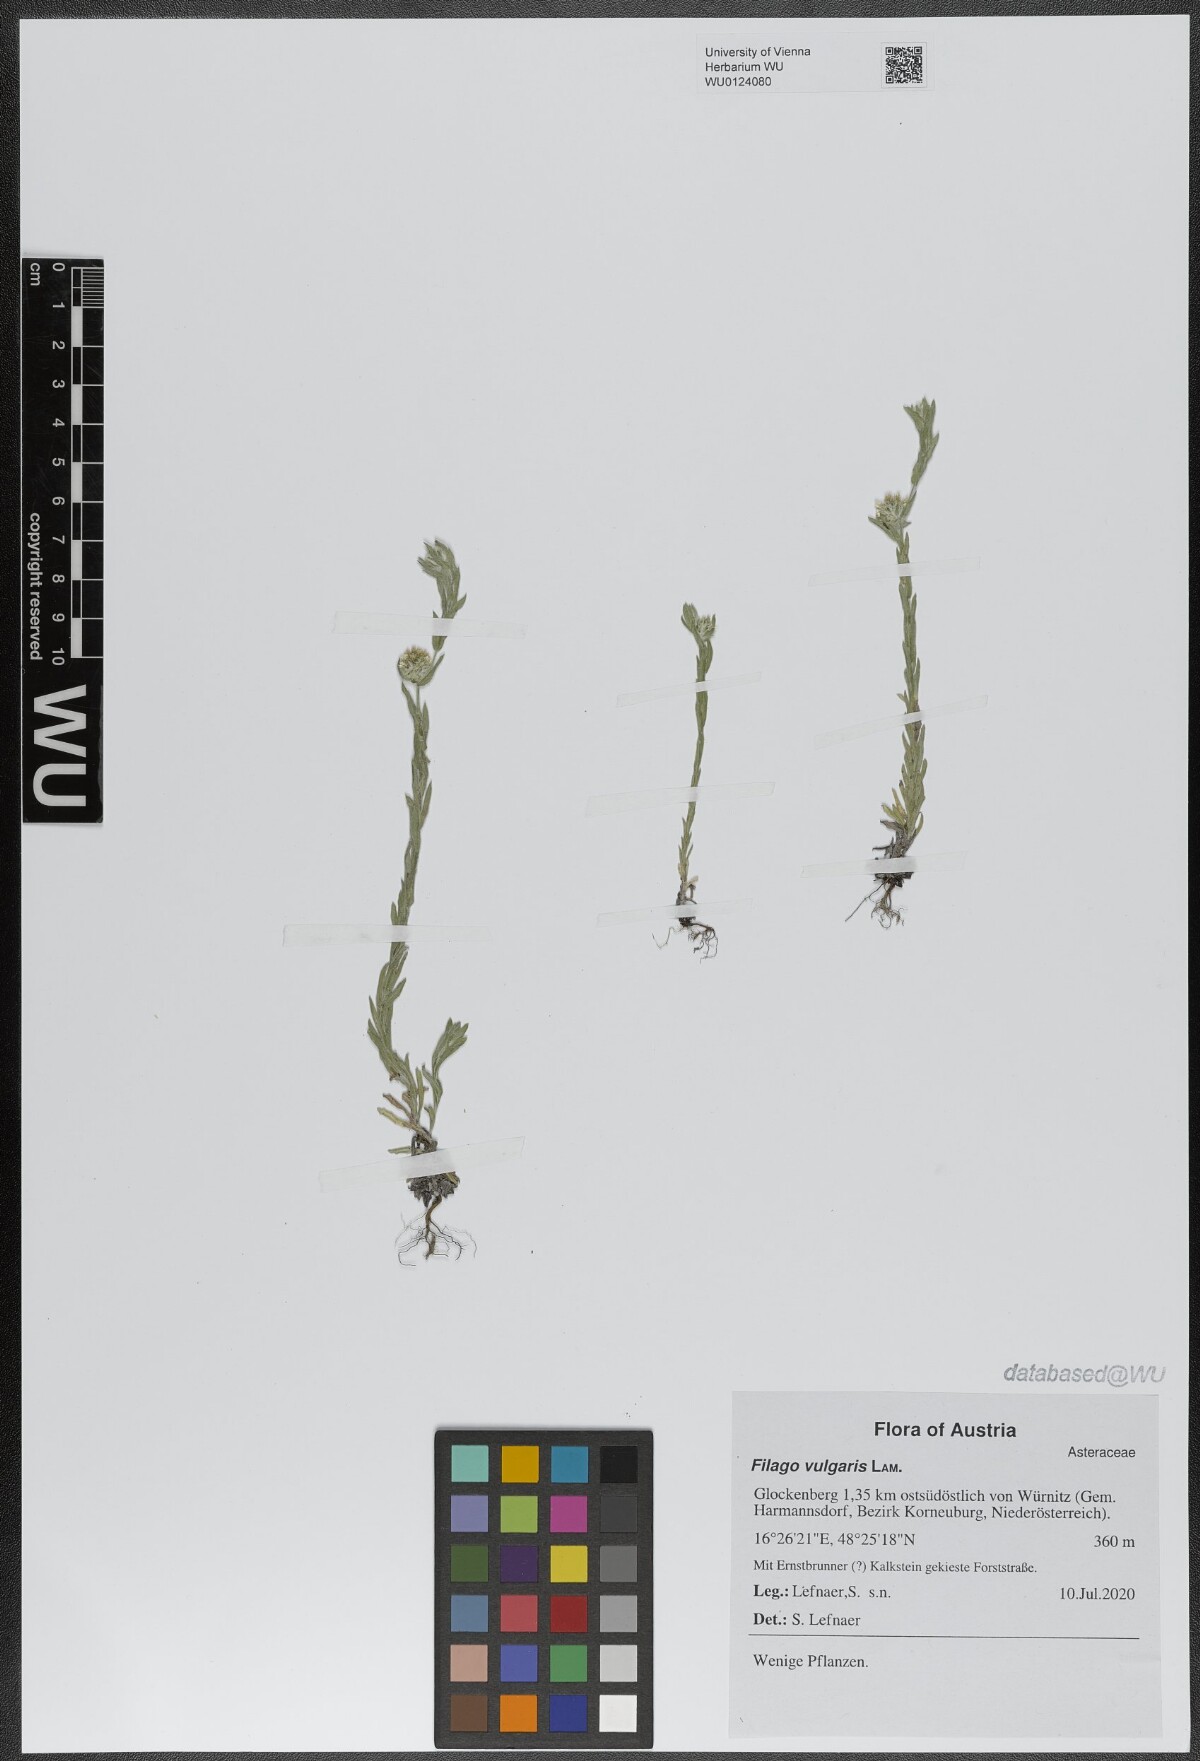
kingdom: Plantae
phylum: Tracheophyta
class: Magnoliopsida
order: Asterales
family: Asteraceae
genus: Filago
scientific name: Filago germanica
